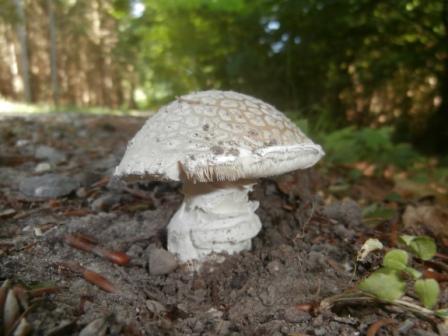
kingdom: Fungi
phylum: Basidiomycota
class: Agaricomycetes
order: Agaricales
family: Amanitaceae
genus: Amanita
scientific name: Amanita
